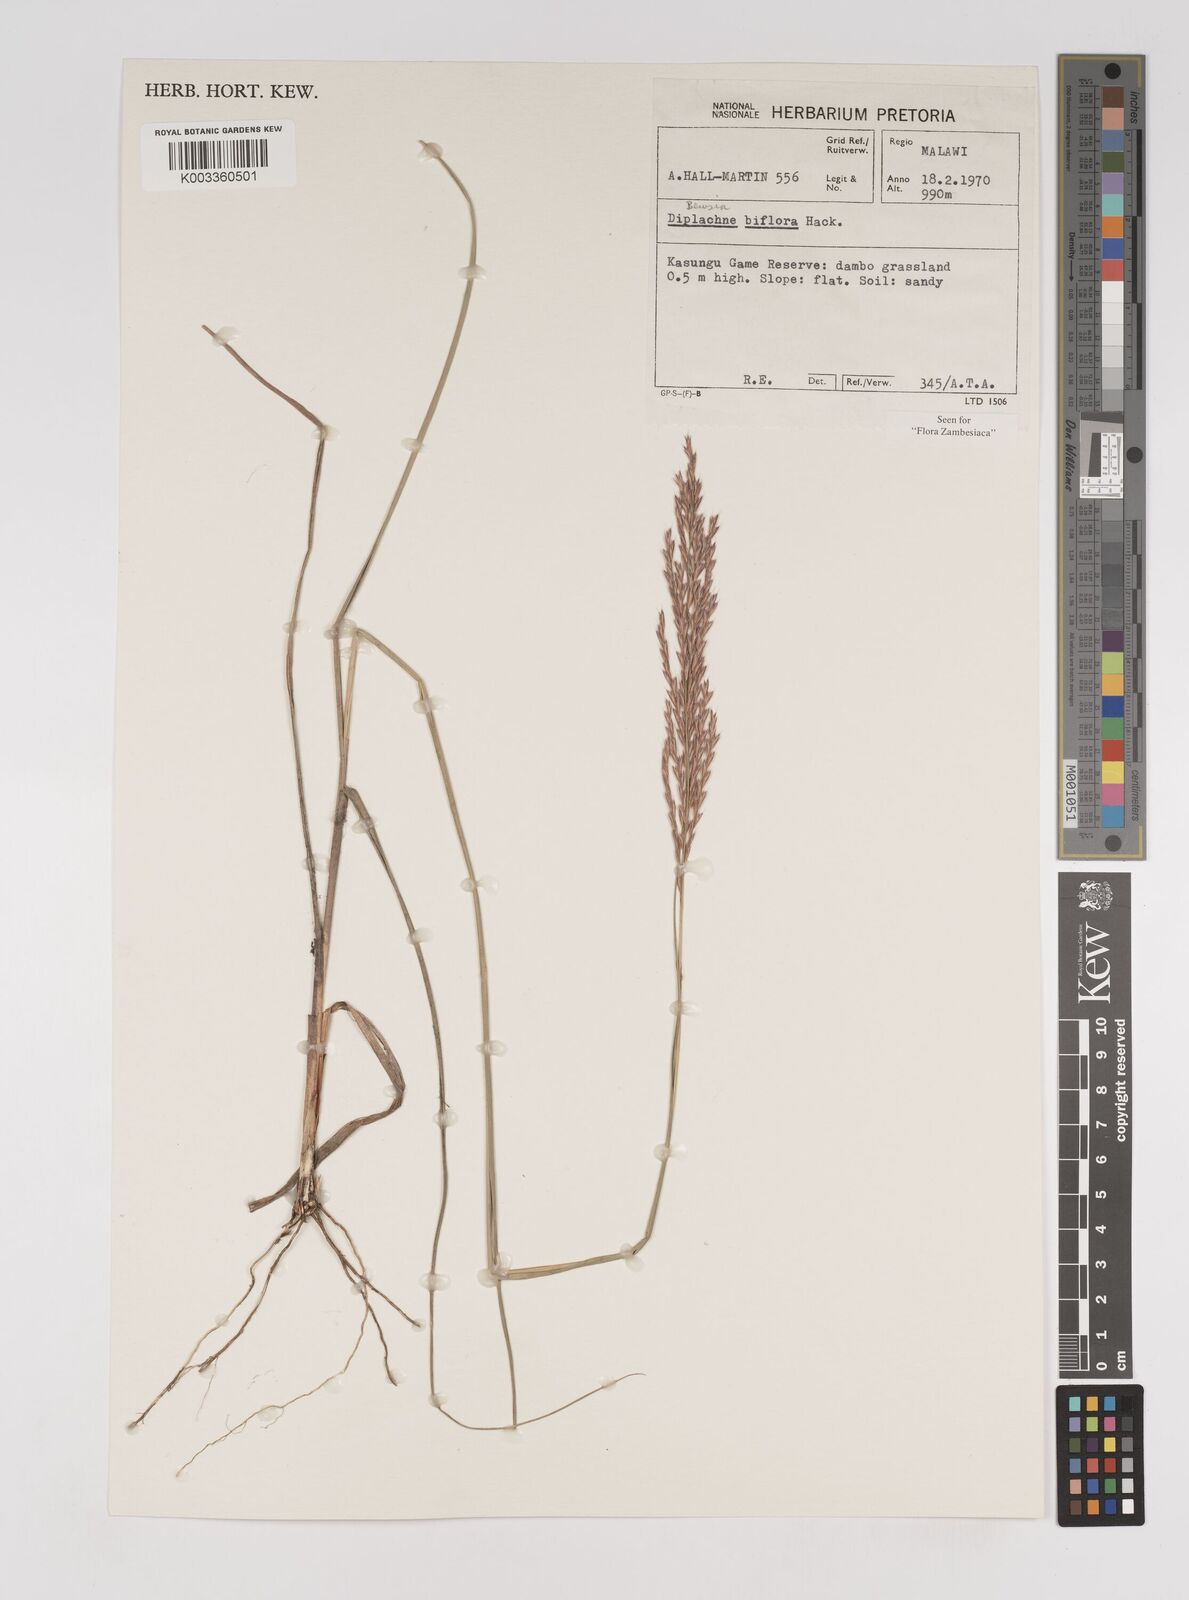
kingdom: Plantae
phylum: Tracheophyta
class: Liliopsida
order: Poales
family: Poaceae
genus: Bewsia
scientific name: Bewsia biflora
